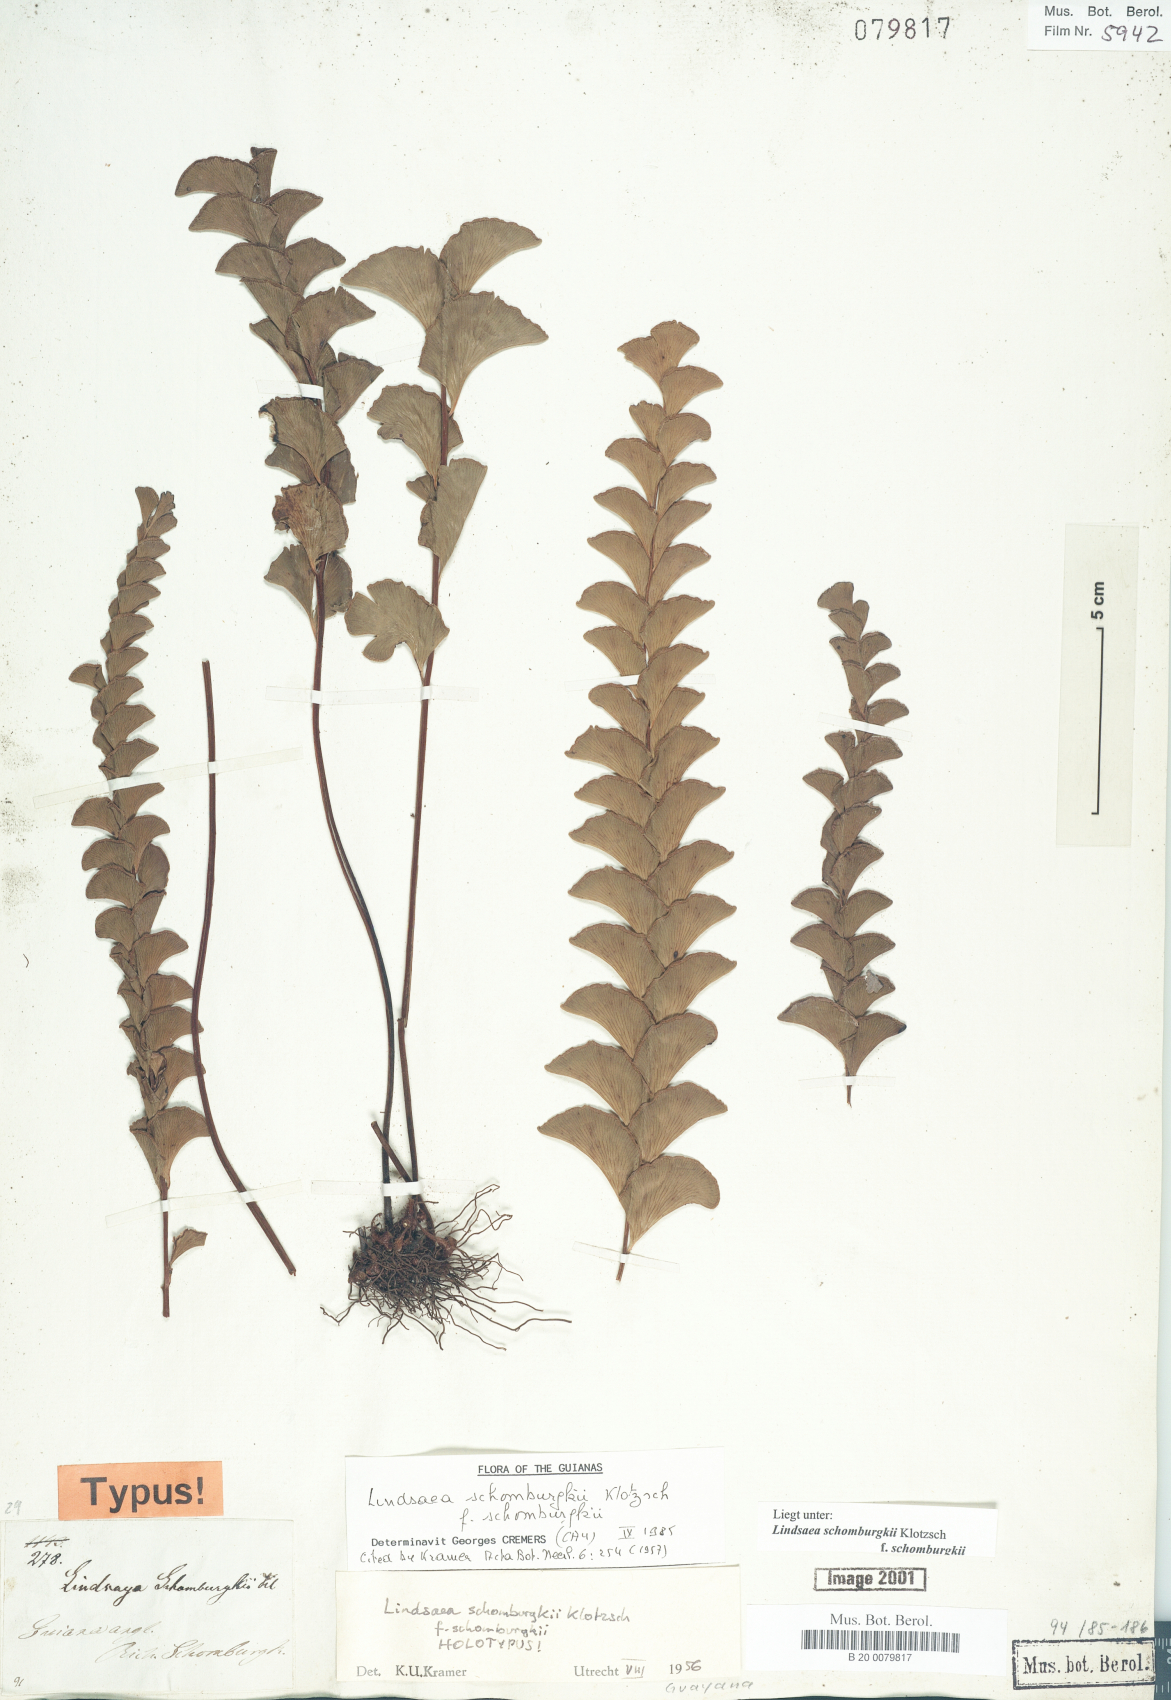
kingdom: Plantae
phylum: Tracheophyta
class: Polypodiopsida
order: Polypodiales
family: Lindsaeaceae
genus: Lindsaea
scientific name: Lindsaea schomburgkii
